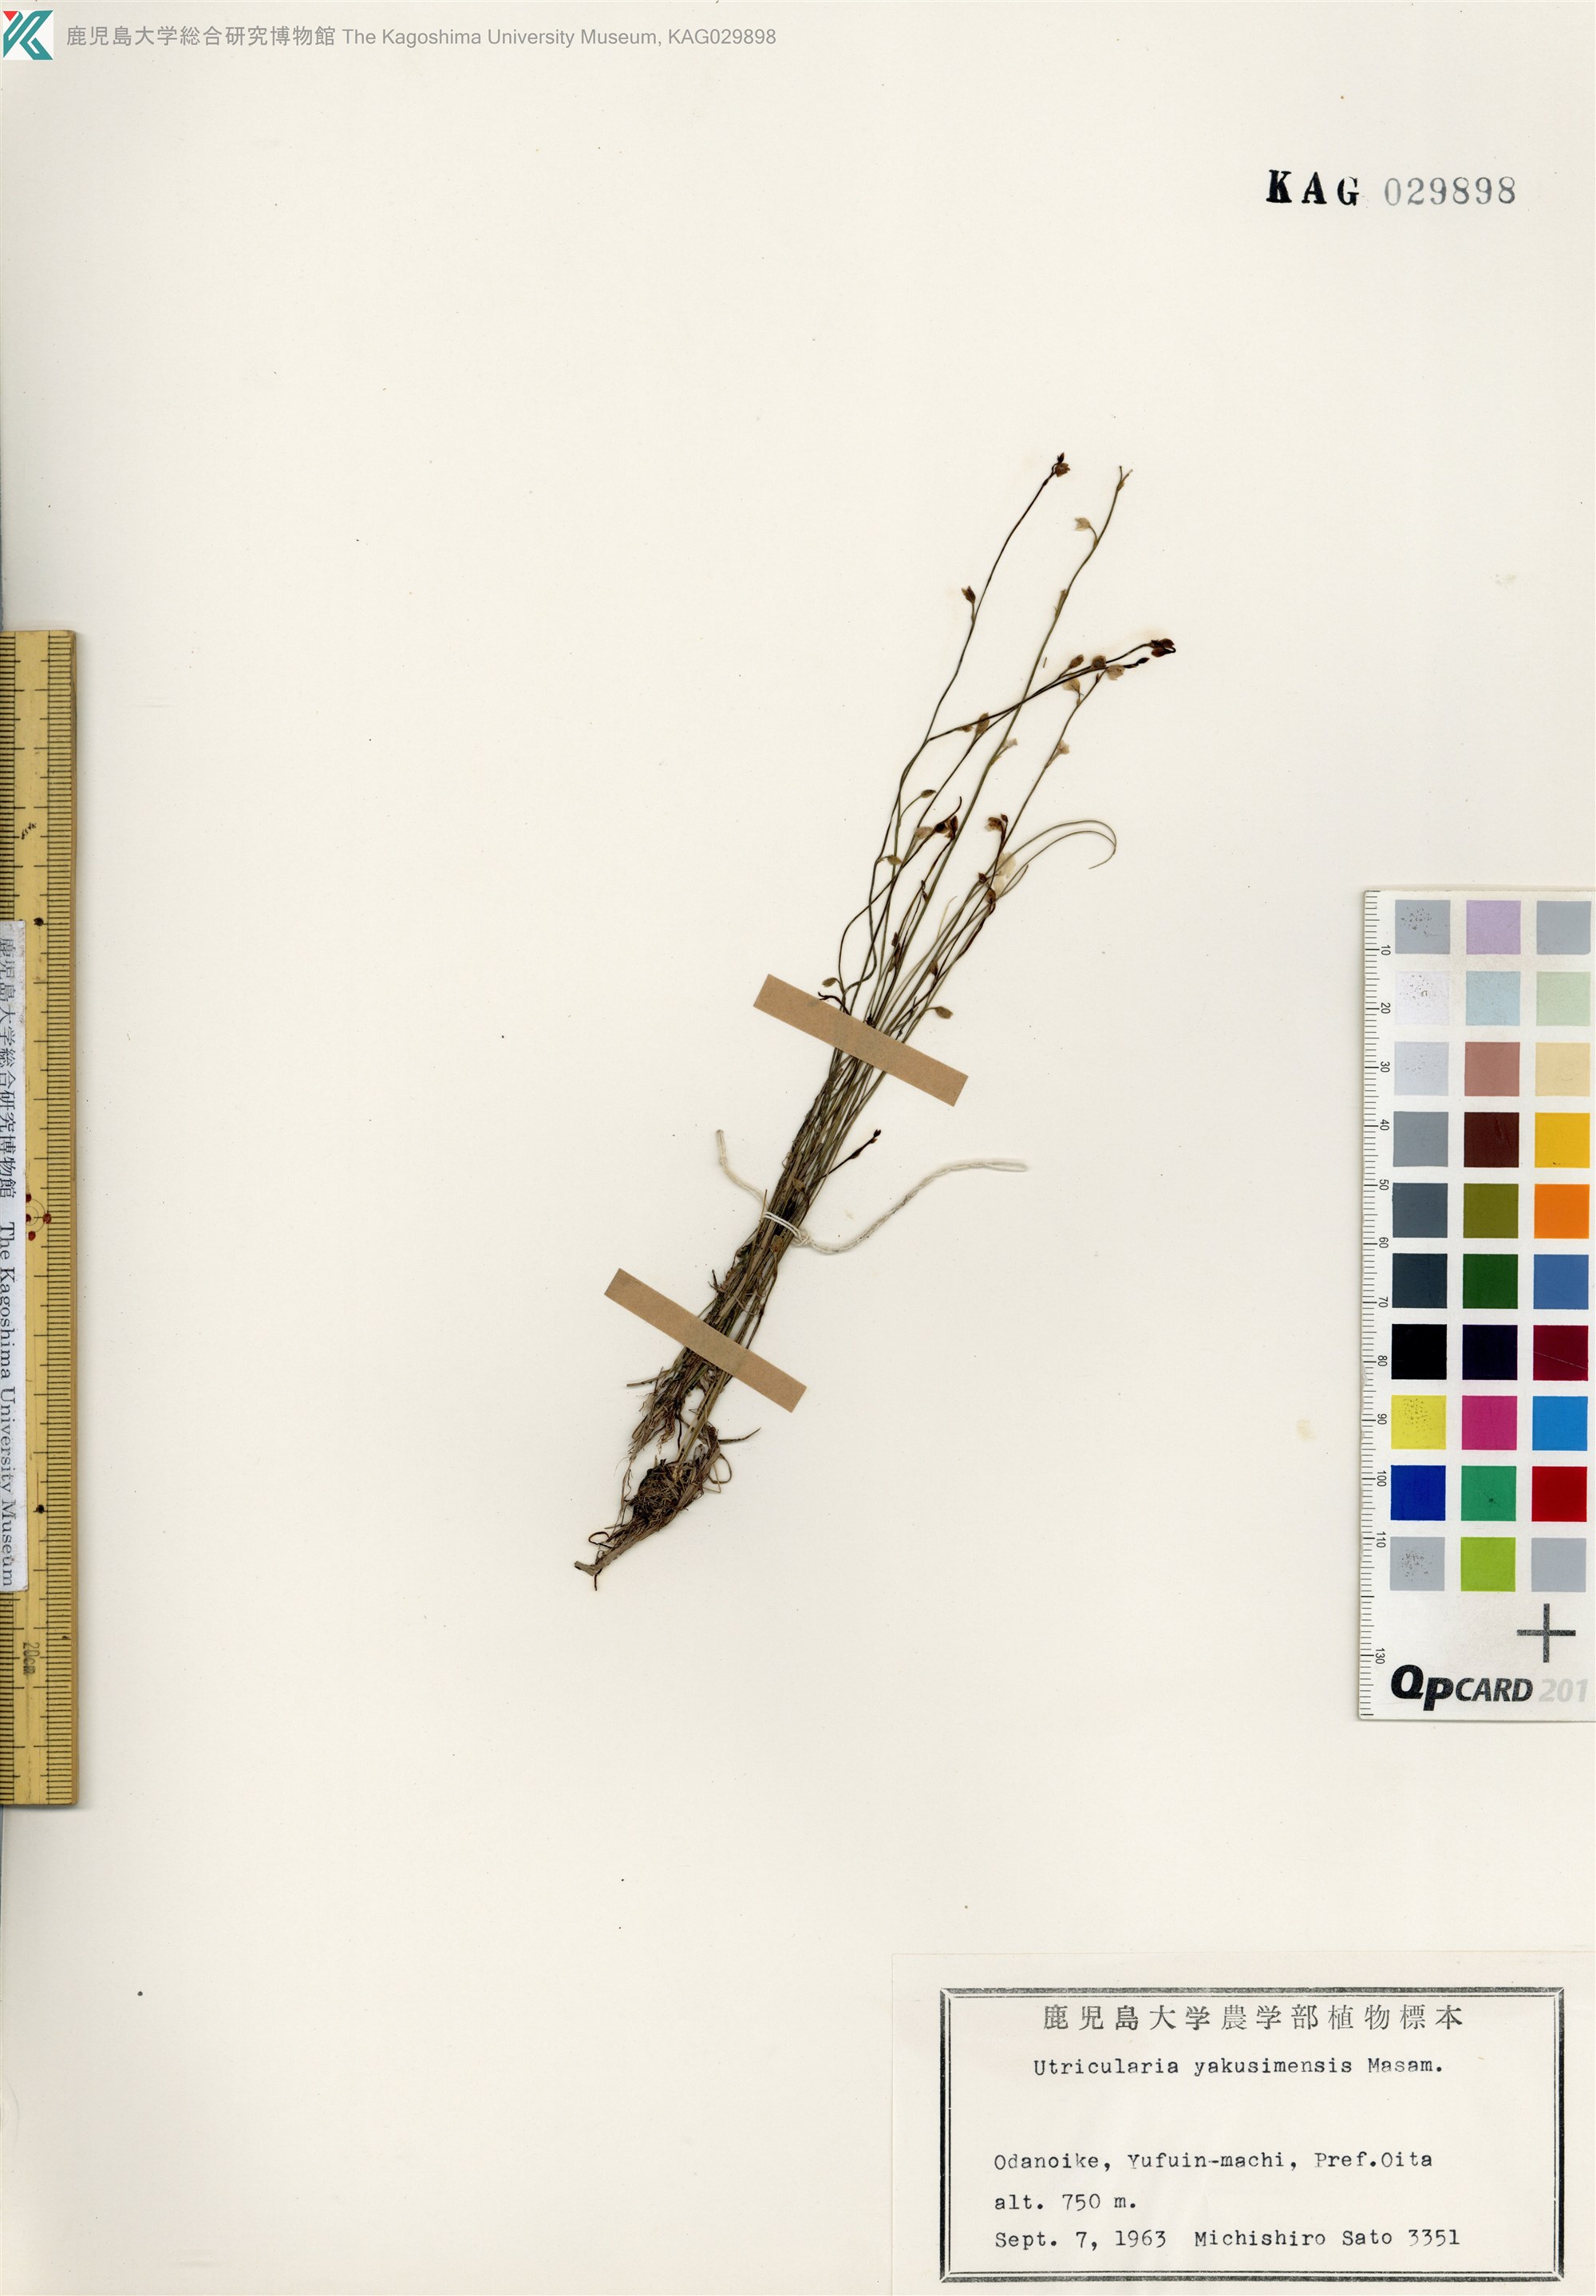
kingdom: Plantae
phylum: Tracheophyta
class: Magnoliopsida
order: Lamiales
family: Lentibulariaceae
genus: Utricularia
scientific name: Utricularia uliginosa
